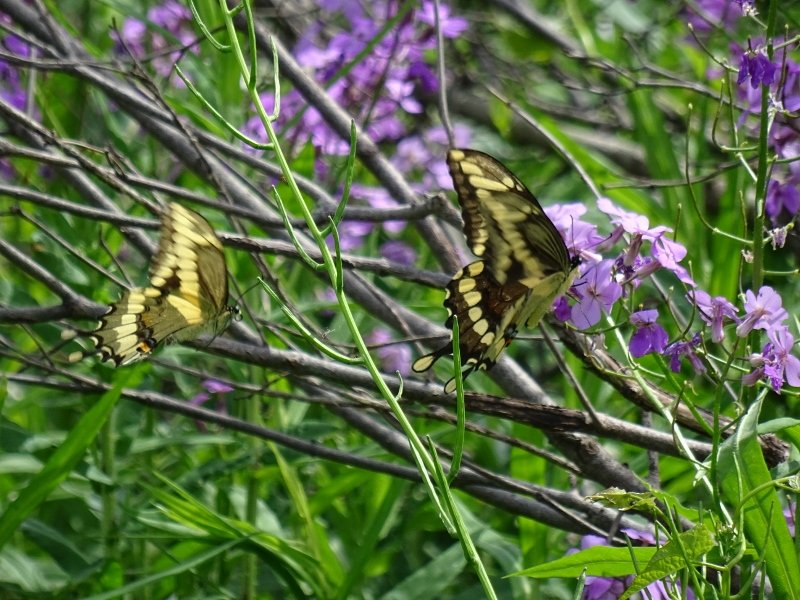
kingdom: Animalia
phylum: Arthropoda
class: Insecta
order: Lepidoptera
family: Papilionidae
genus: Papilio
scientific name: Papilio cresphontes
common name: Eastern Giant Swallowtail
